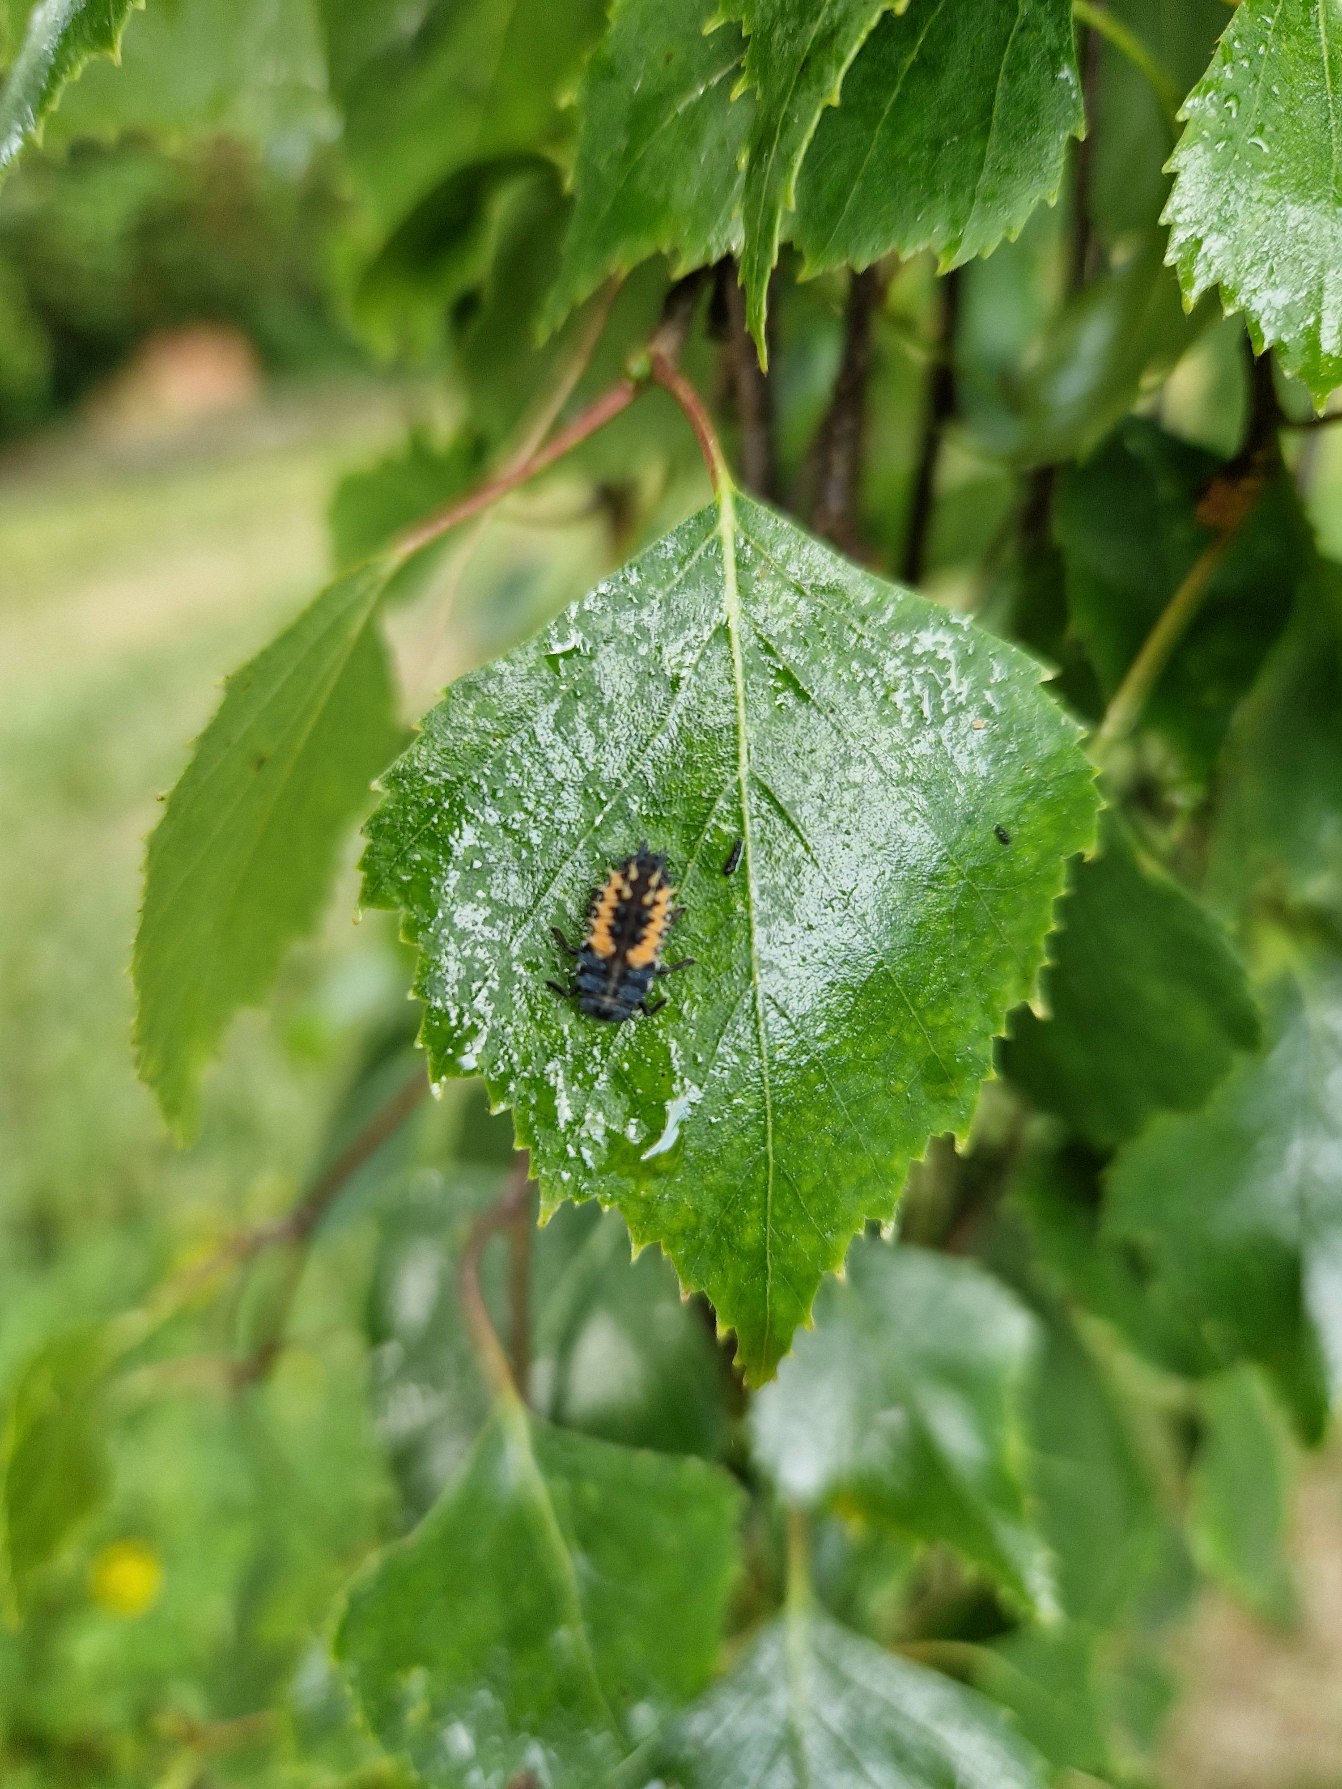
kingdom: Animalia
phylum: Arthropoda
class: Insecta
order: Coleoptera
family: Coccinellidae
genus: Harmonia
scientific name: Harmonia axyridis
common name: Harlekinmariehøne
